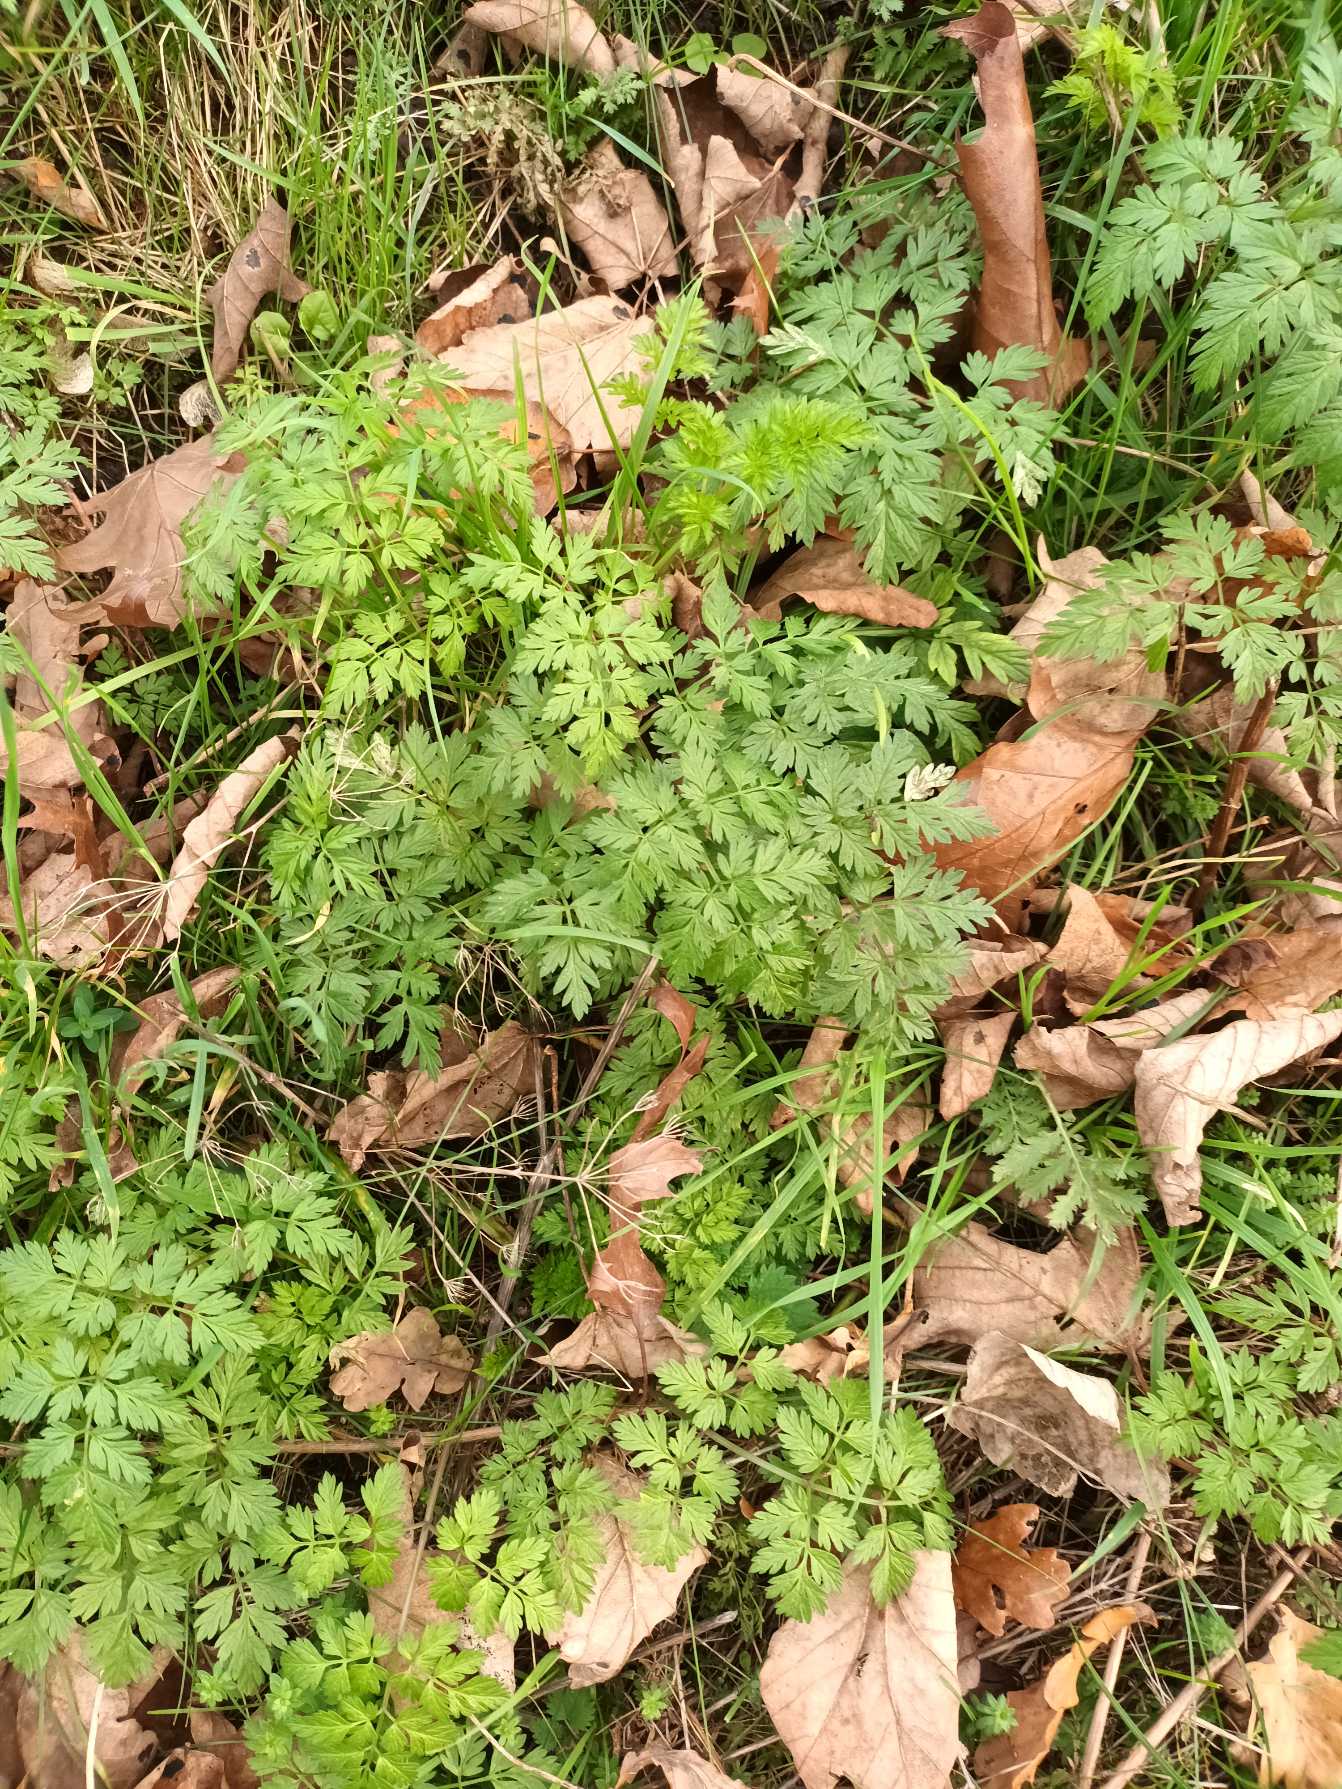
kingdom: Plantae
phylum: Tracheophyta
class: Magnoliopsida
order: Apiales
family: Apiaceae
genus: Anthriscus
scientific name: Anthriscus sylvestris
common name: Vild kørvel
